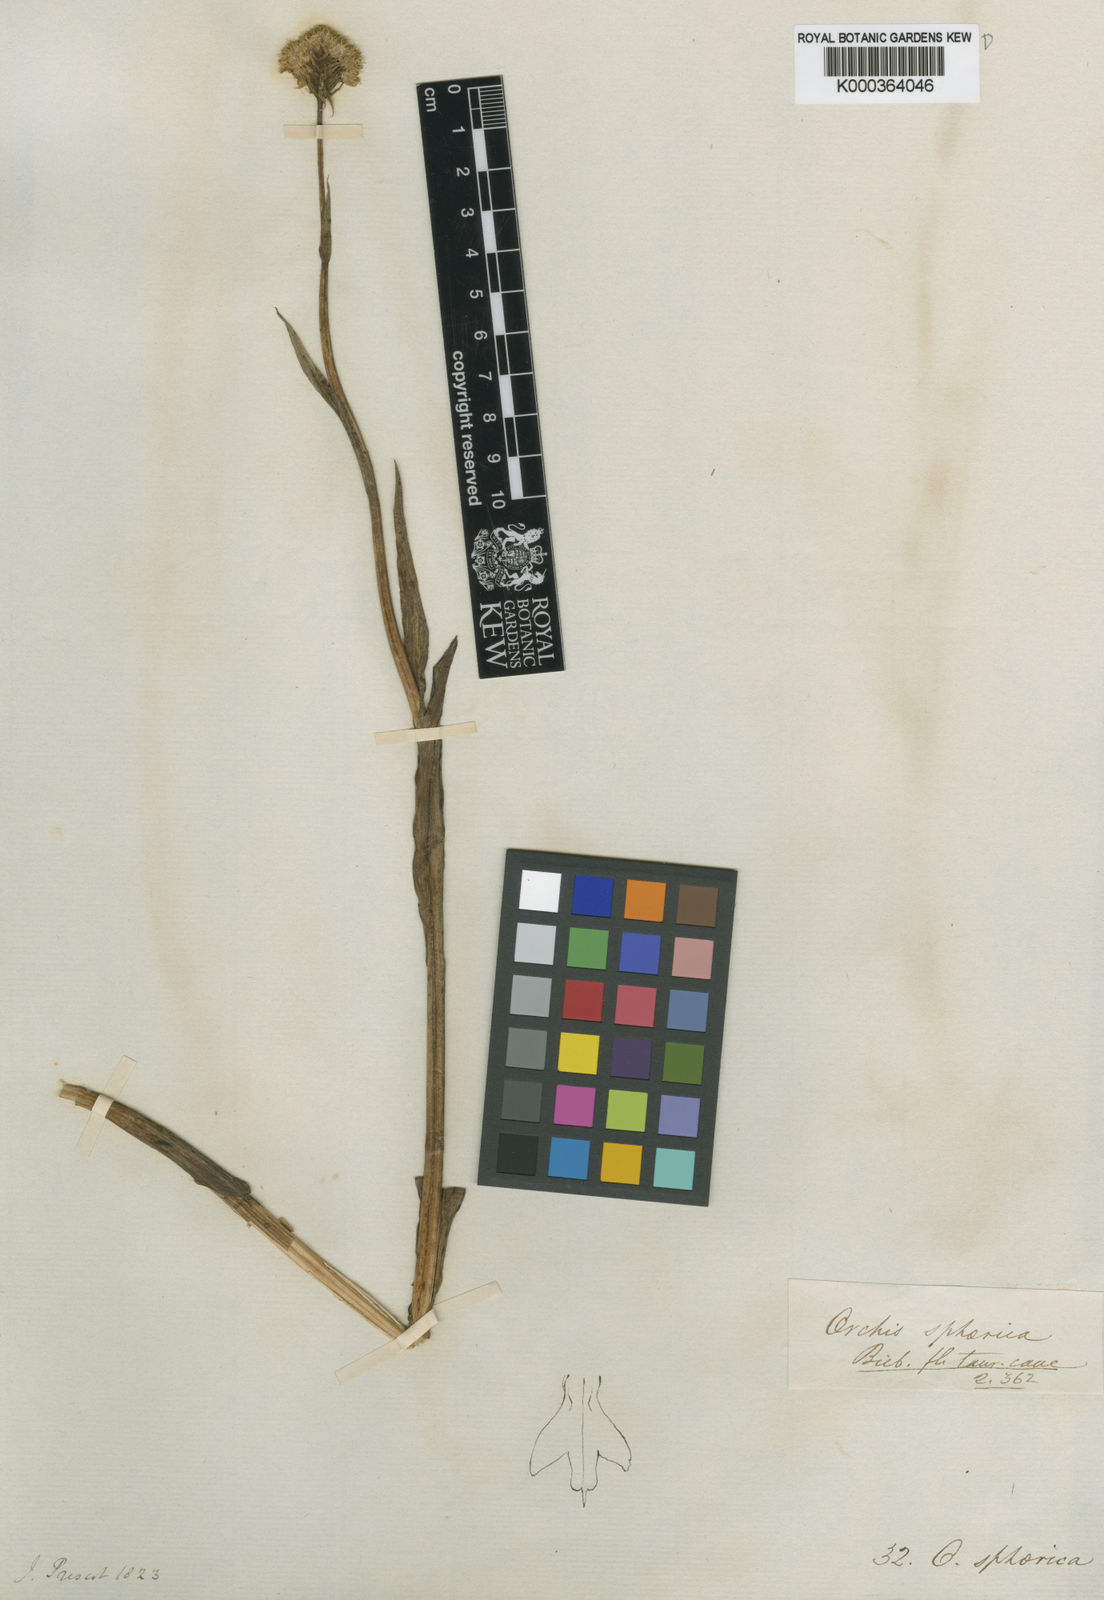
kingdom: Plantae
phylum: Tracheophyta
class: Liliopsida
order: Asparagales
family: Orchidaceae
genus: Traunsteinera
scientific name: Traunsteinera sphaerica
